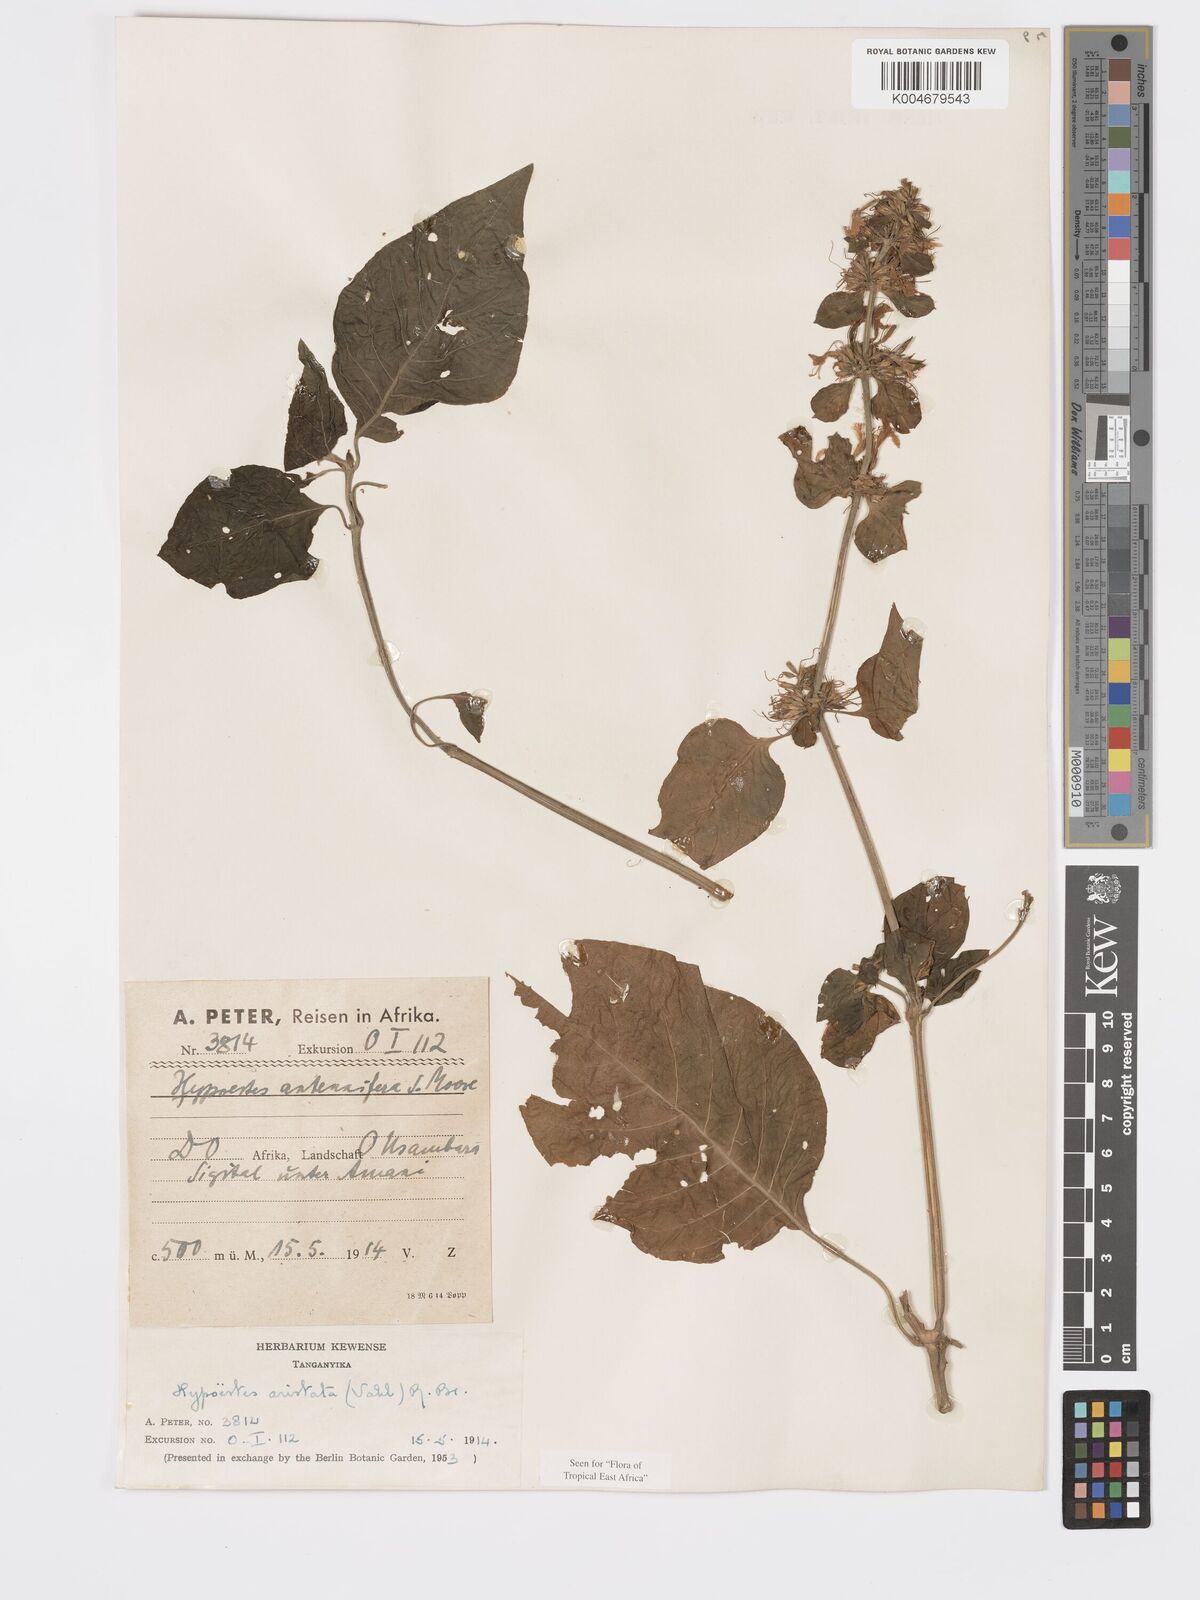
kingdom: Plantae
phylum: Tracheophyta
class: Magnoliopsida
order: Lamiales
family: Acanthaceae
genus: Hypoestes
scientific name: Hypoestes aristata
